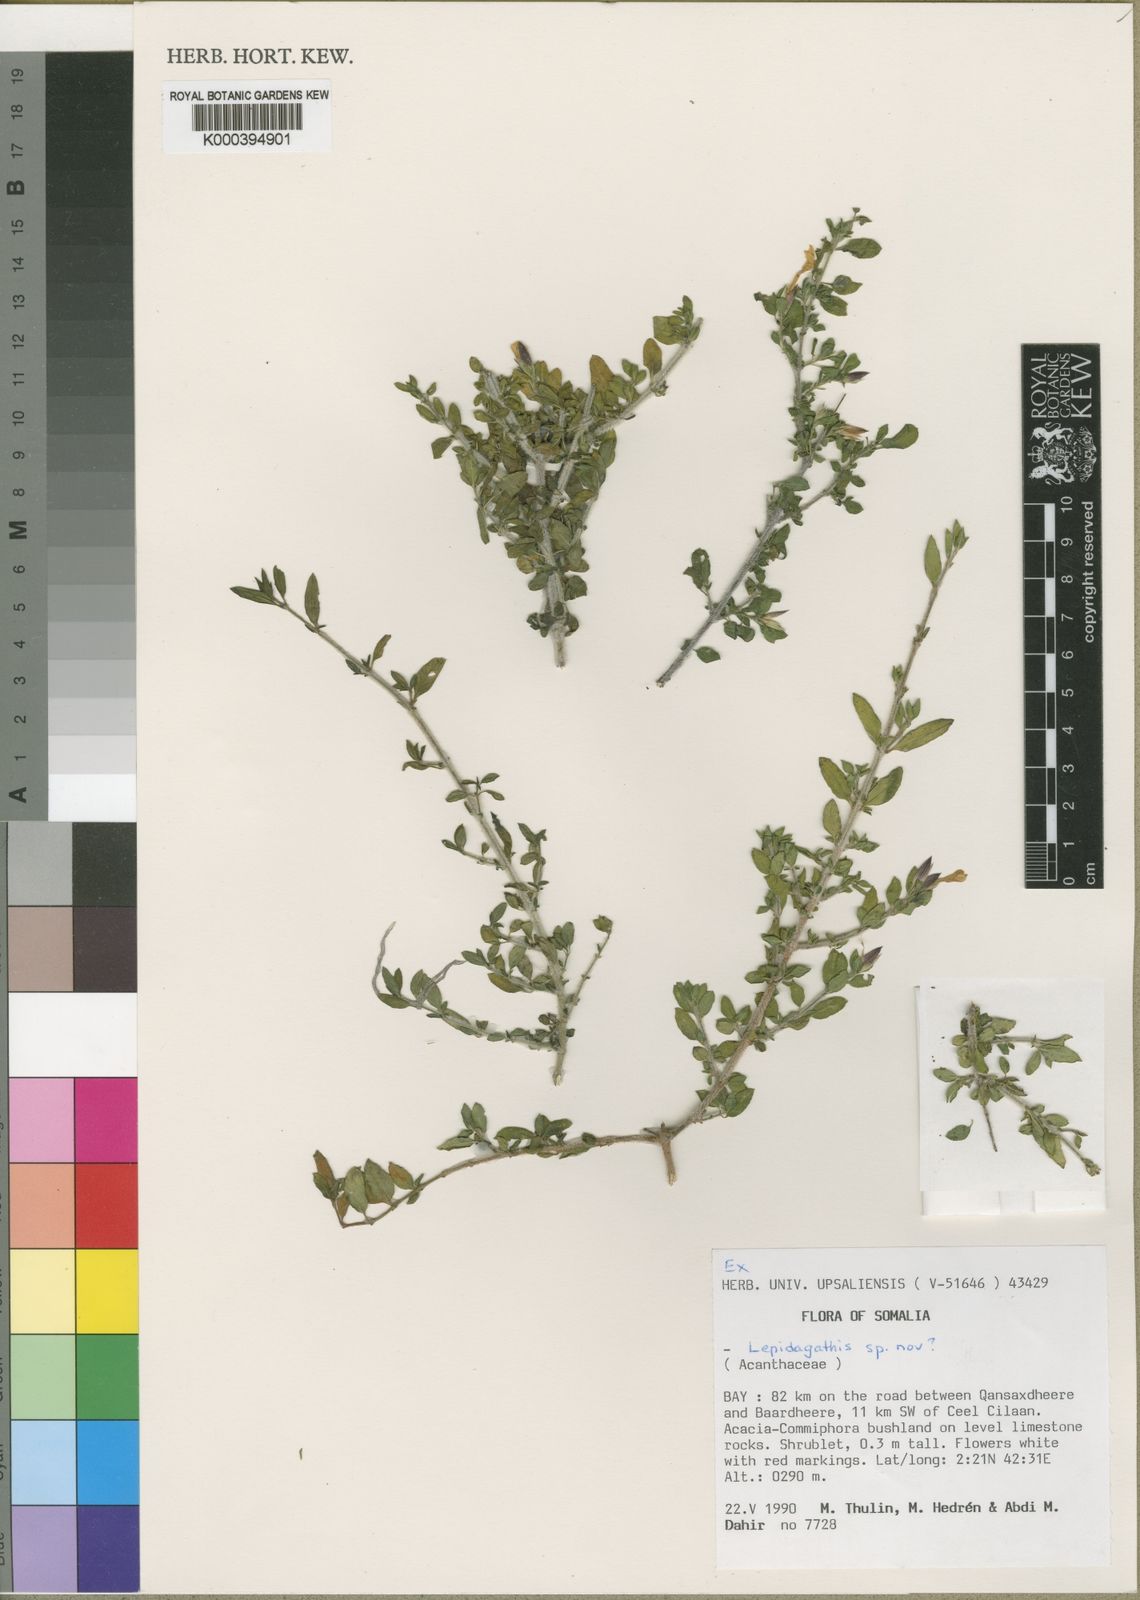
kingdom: Plantae
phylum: Tracheophyta
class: Magnoliopsida
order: Lamiales
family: Acanthaceae
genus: Lepidagathis
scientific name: Lepidagathis
